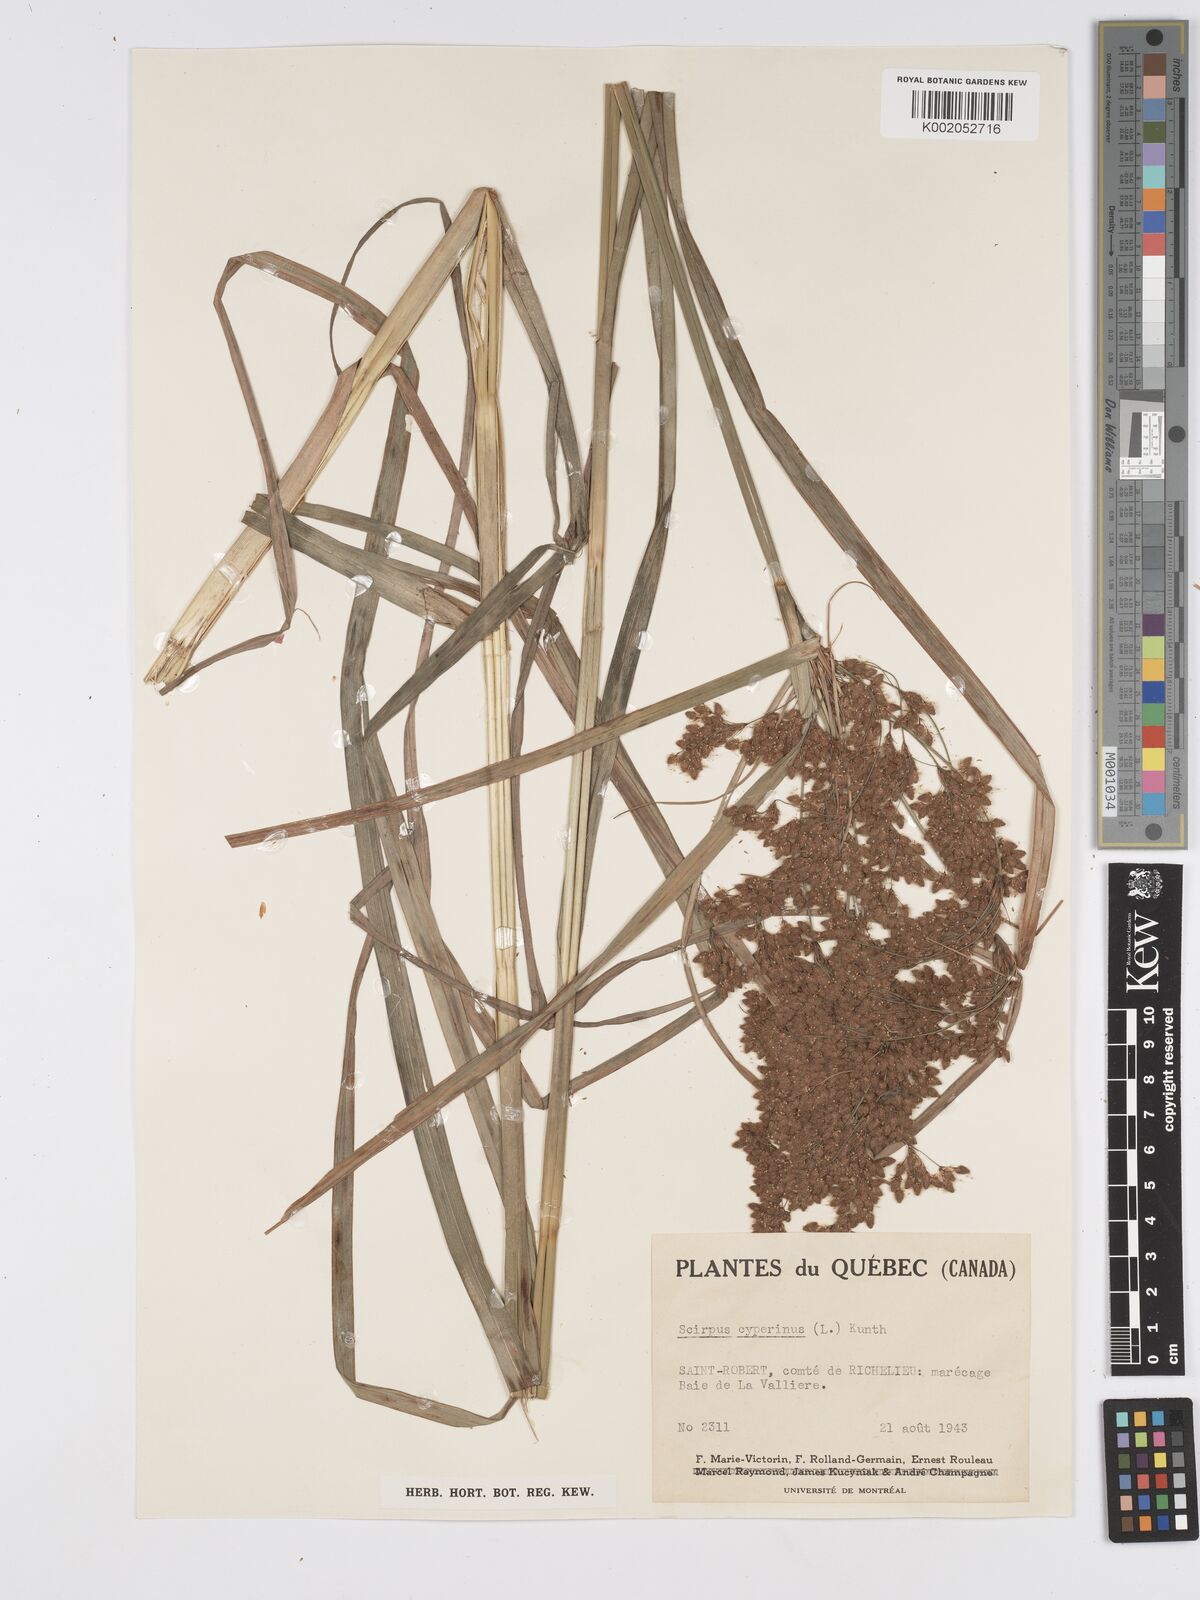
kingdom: Plantae
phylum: Tracheophyta
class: Liliopsida
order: Poales
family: Cyperaceae
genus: Scirpus
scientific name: Scirpus cyperinus
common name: Black-sheathed bulrush
